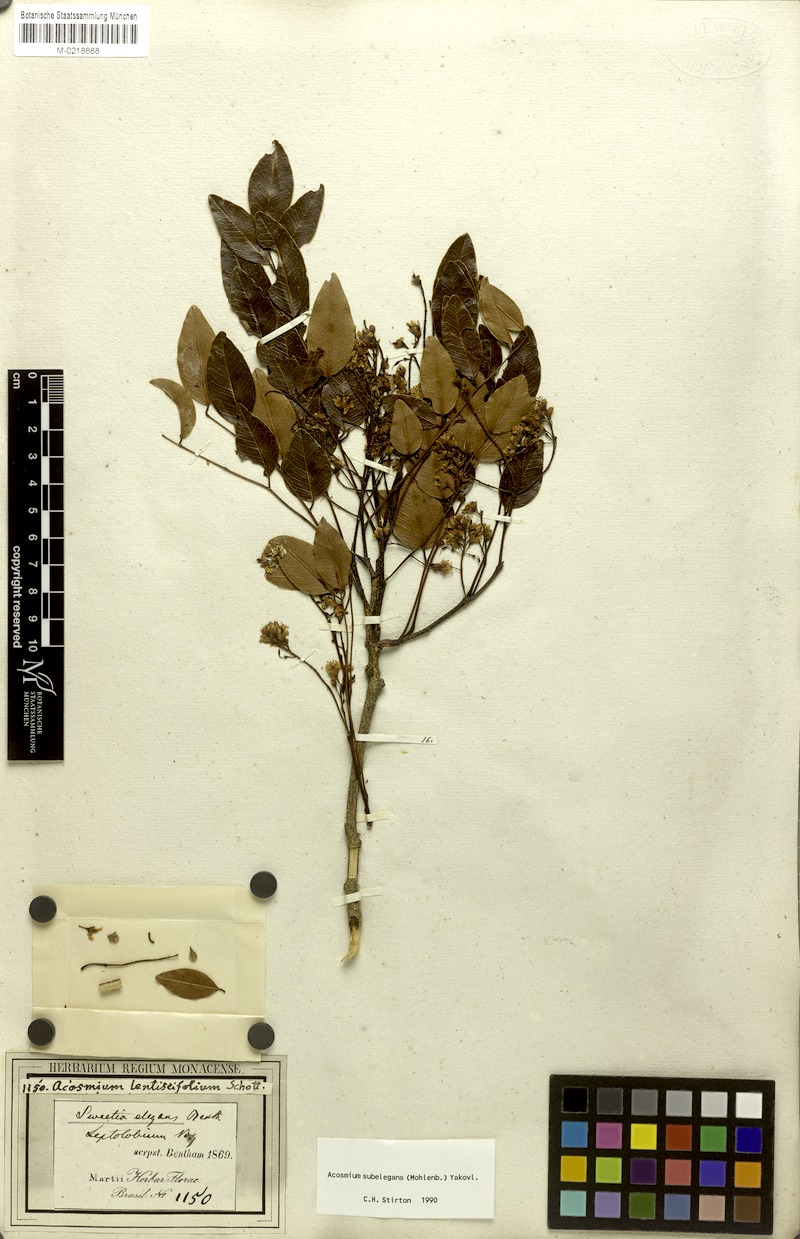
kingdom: Plantae
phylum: Tracheophyta
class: Magnoliopsida
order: Fabales
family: Fabaceae
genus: Leptolobium
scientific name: Leptolobium elegans
